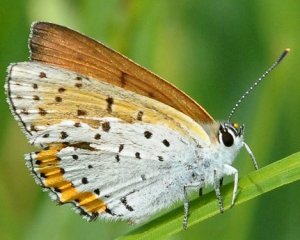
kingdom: Animalia
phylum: Arthropoda
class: Insecta
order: Lepidoptera
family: Sesiidae
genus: Sesia
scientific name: Sesia Lycaena hyllus
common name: Bronze Copper
